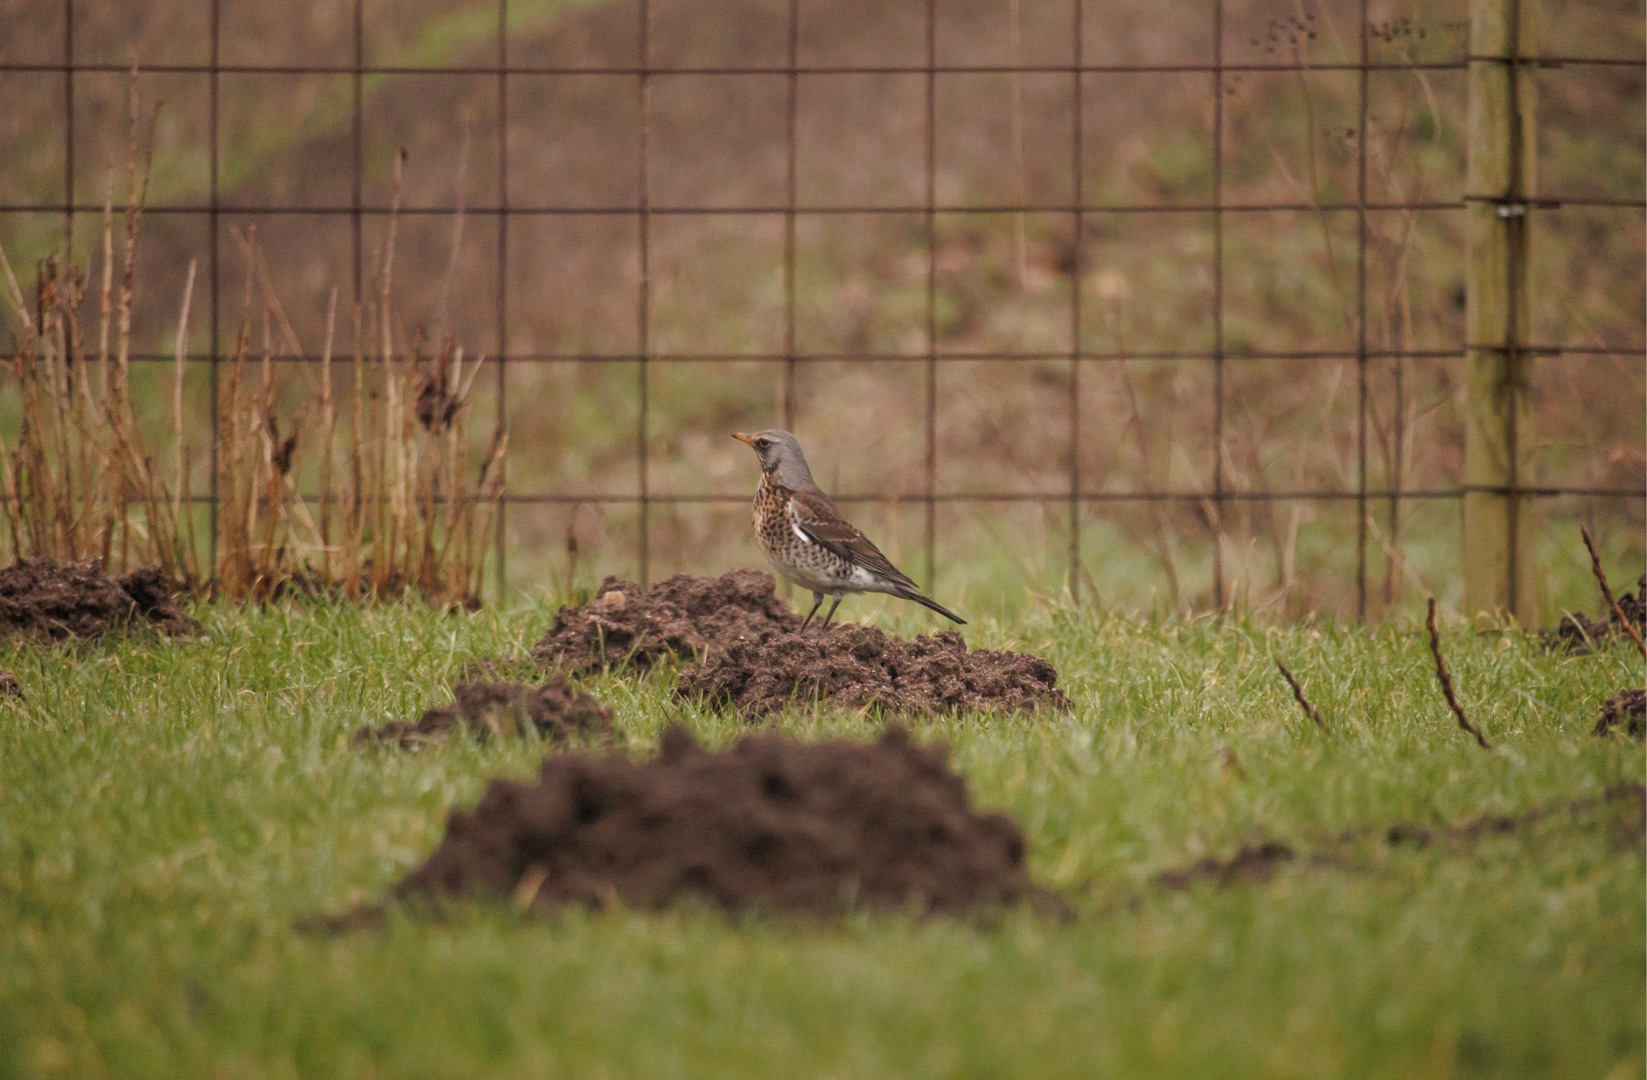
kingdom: Animalia
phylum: Chordata
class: Aves
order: Passeriformes
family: Turdidae
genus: Turdus
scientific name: Turdus pilaris
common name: Sjagger
